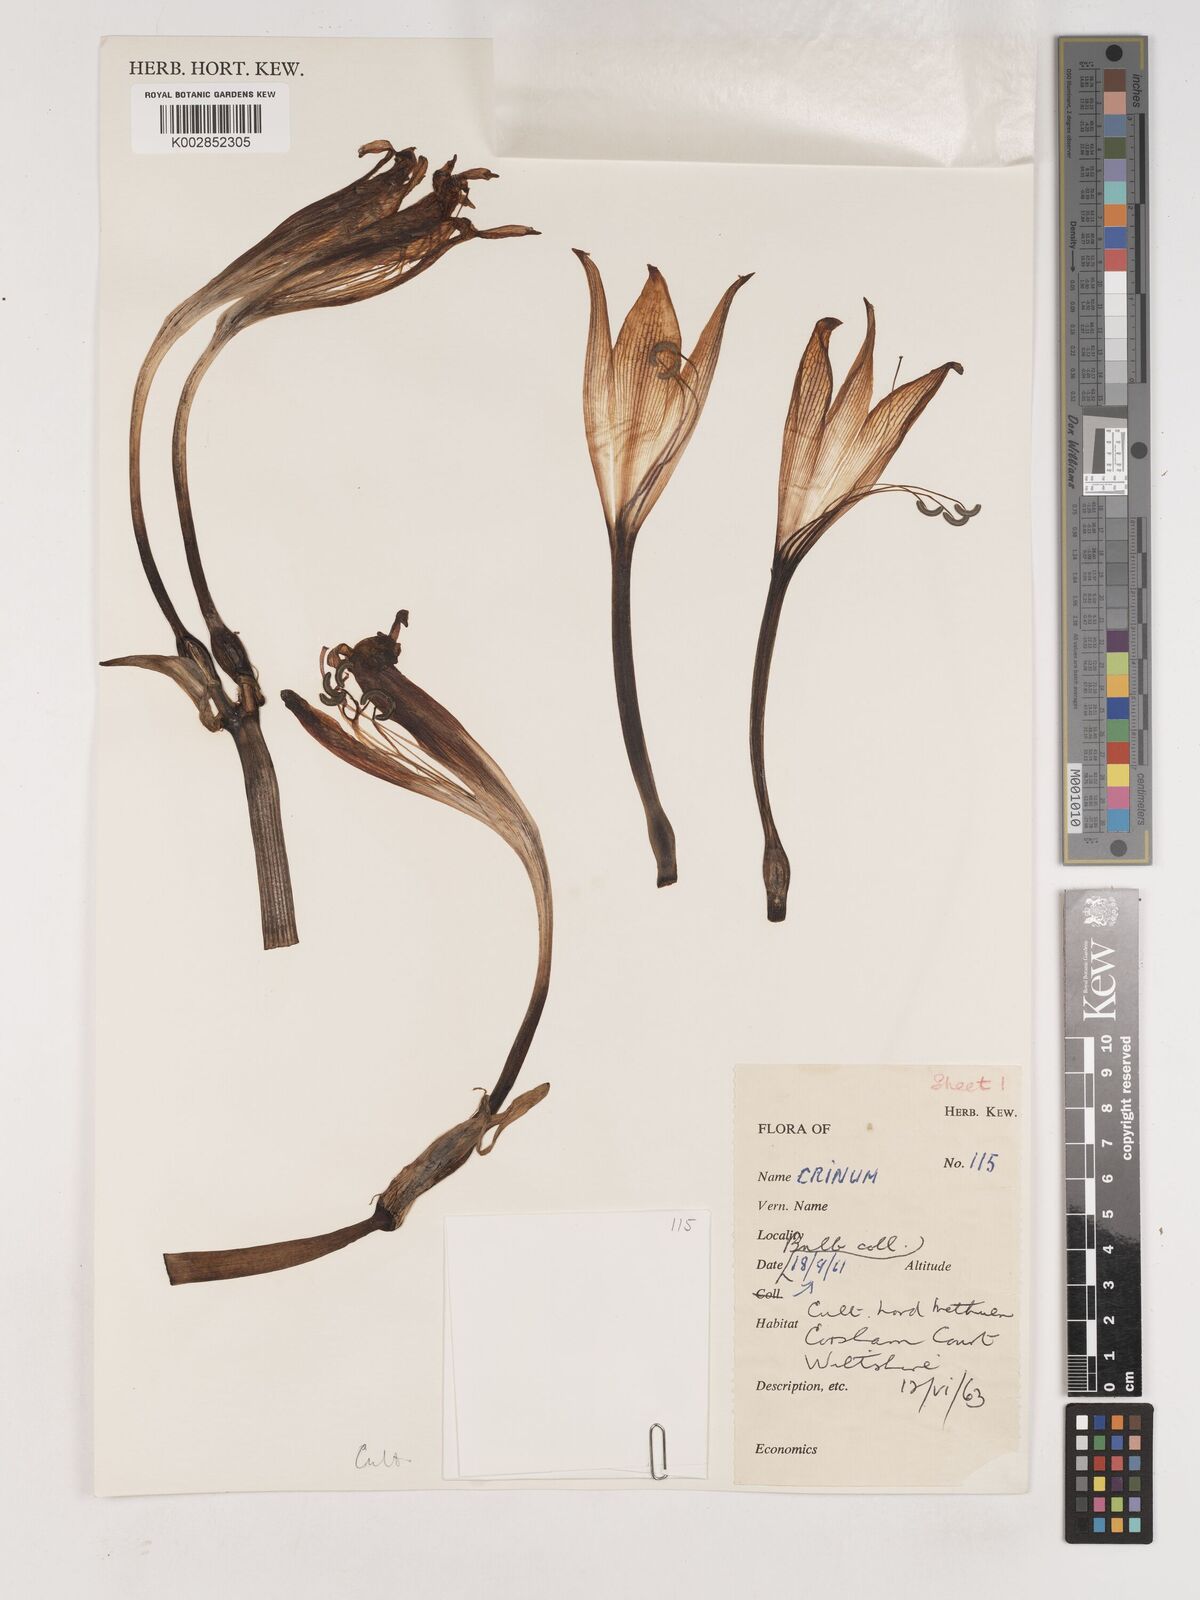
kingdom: Plantae
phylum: Tracheophyta
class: Liliopsida
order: Asparagales
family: Amaryllidaceae
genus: Crinum
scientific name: Crinum
